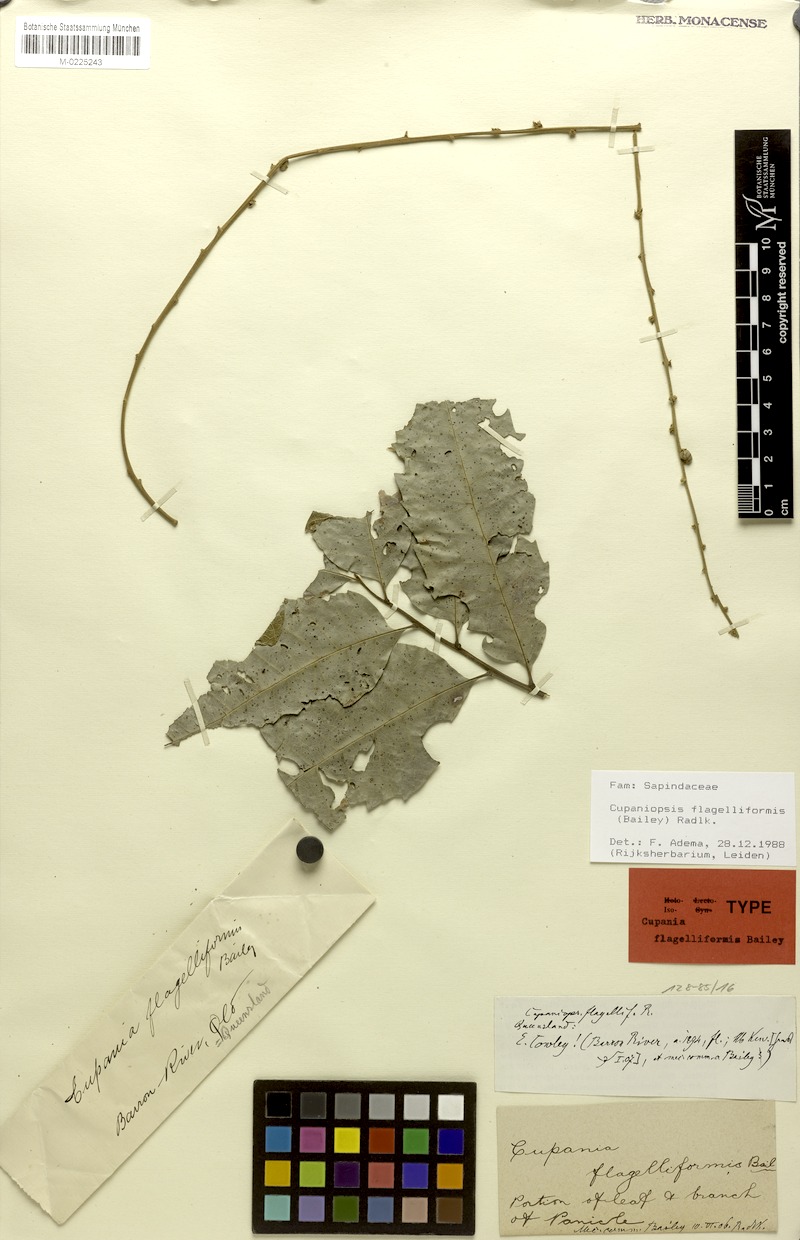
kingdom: Plantae
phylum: Tracheophyta
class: Magnoliopsida
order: Sapindales
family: Sapindaceae
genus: Cupaniopsis
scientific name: Cupaniopsis flagelliformis
